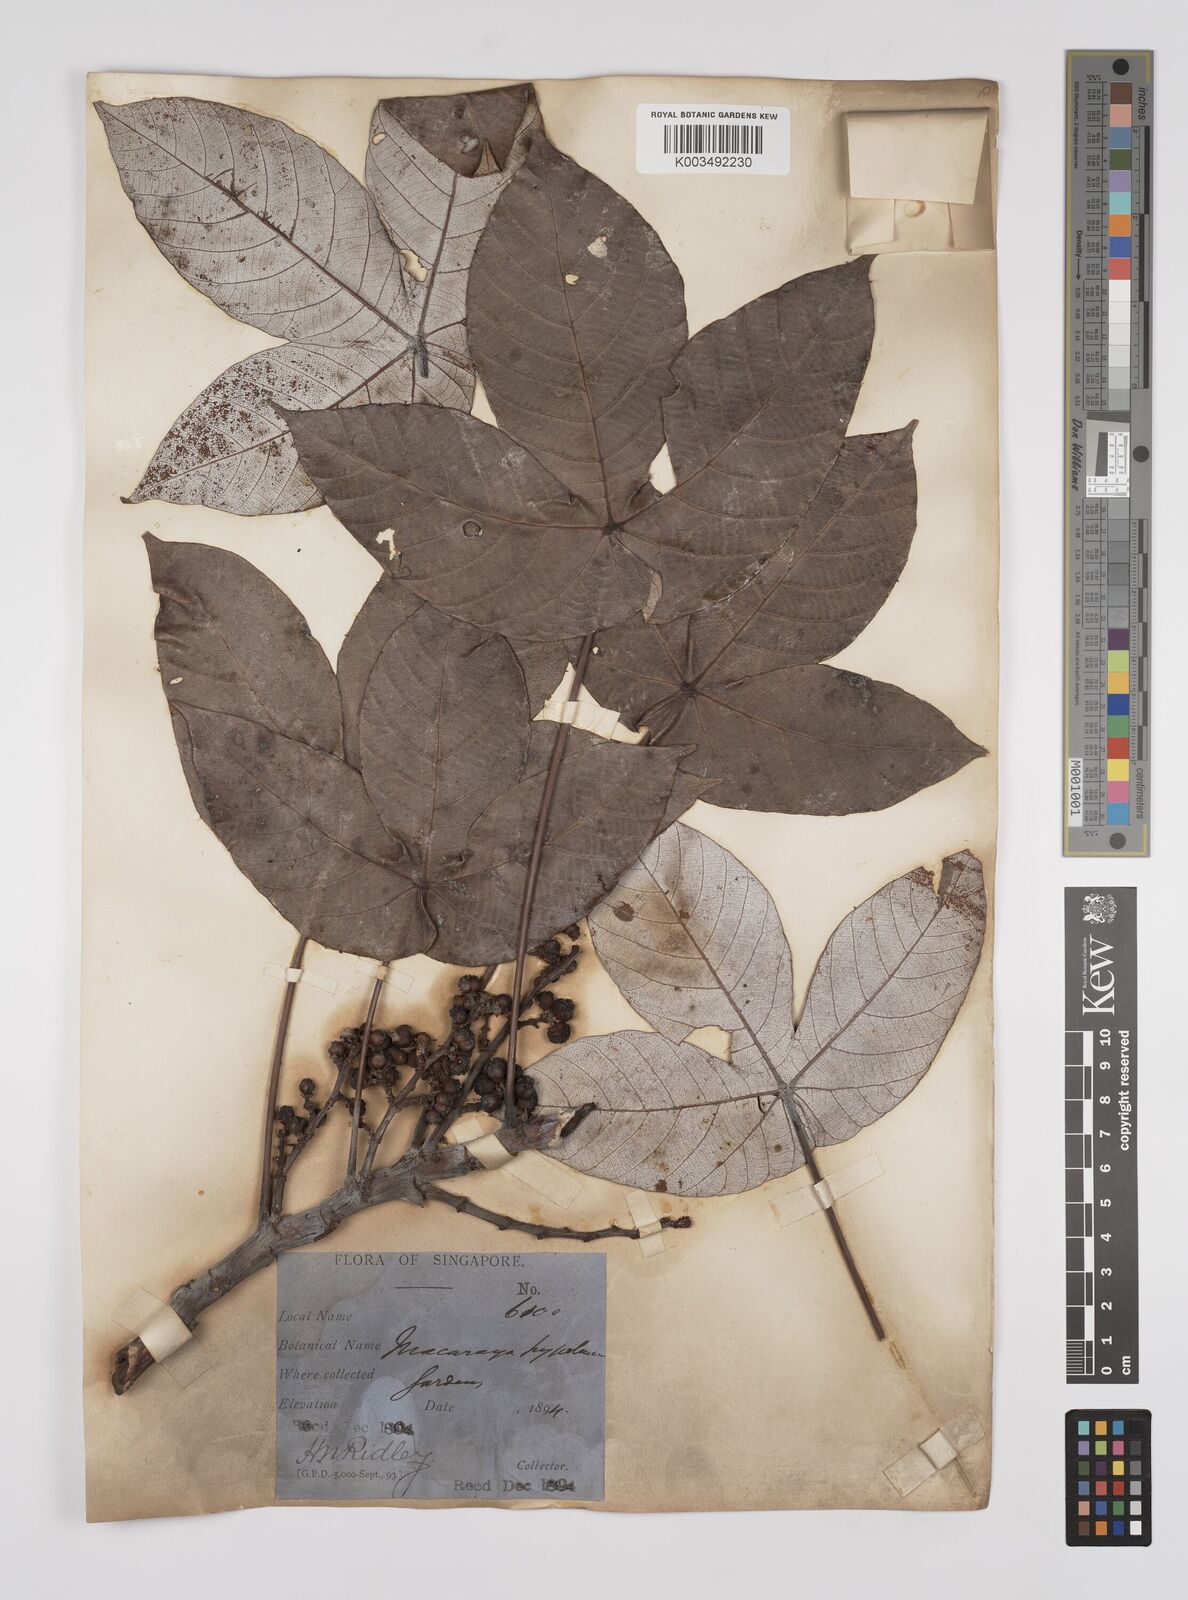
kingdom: Plantae
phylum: Tracheophyta
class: Magnoliopsida
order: Malpighiales
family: Euphorbiaceae
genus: Macaranga
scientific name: Macaranga hypoleuca
